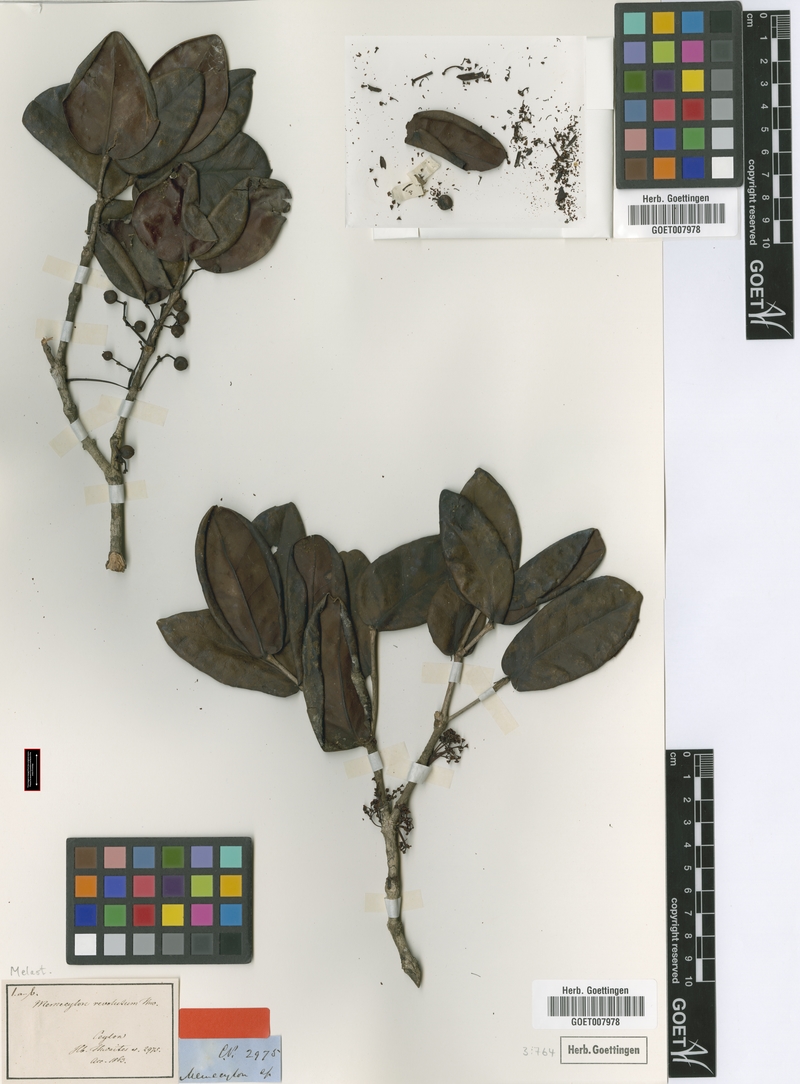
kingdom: Plantae
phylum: Tracheophyta
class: Magnoliopsida
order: Myrtales
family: Melastomataceae
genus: Memecylon
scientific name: Memecylon revolutum
